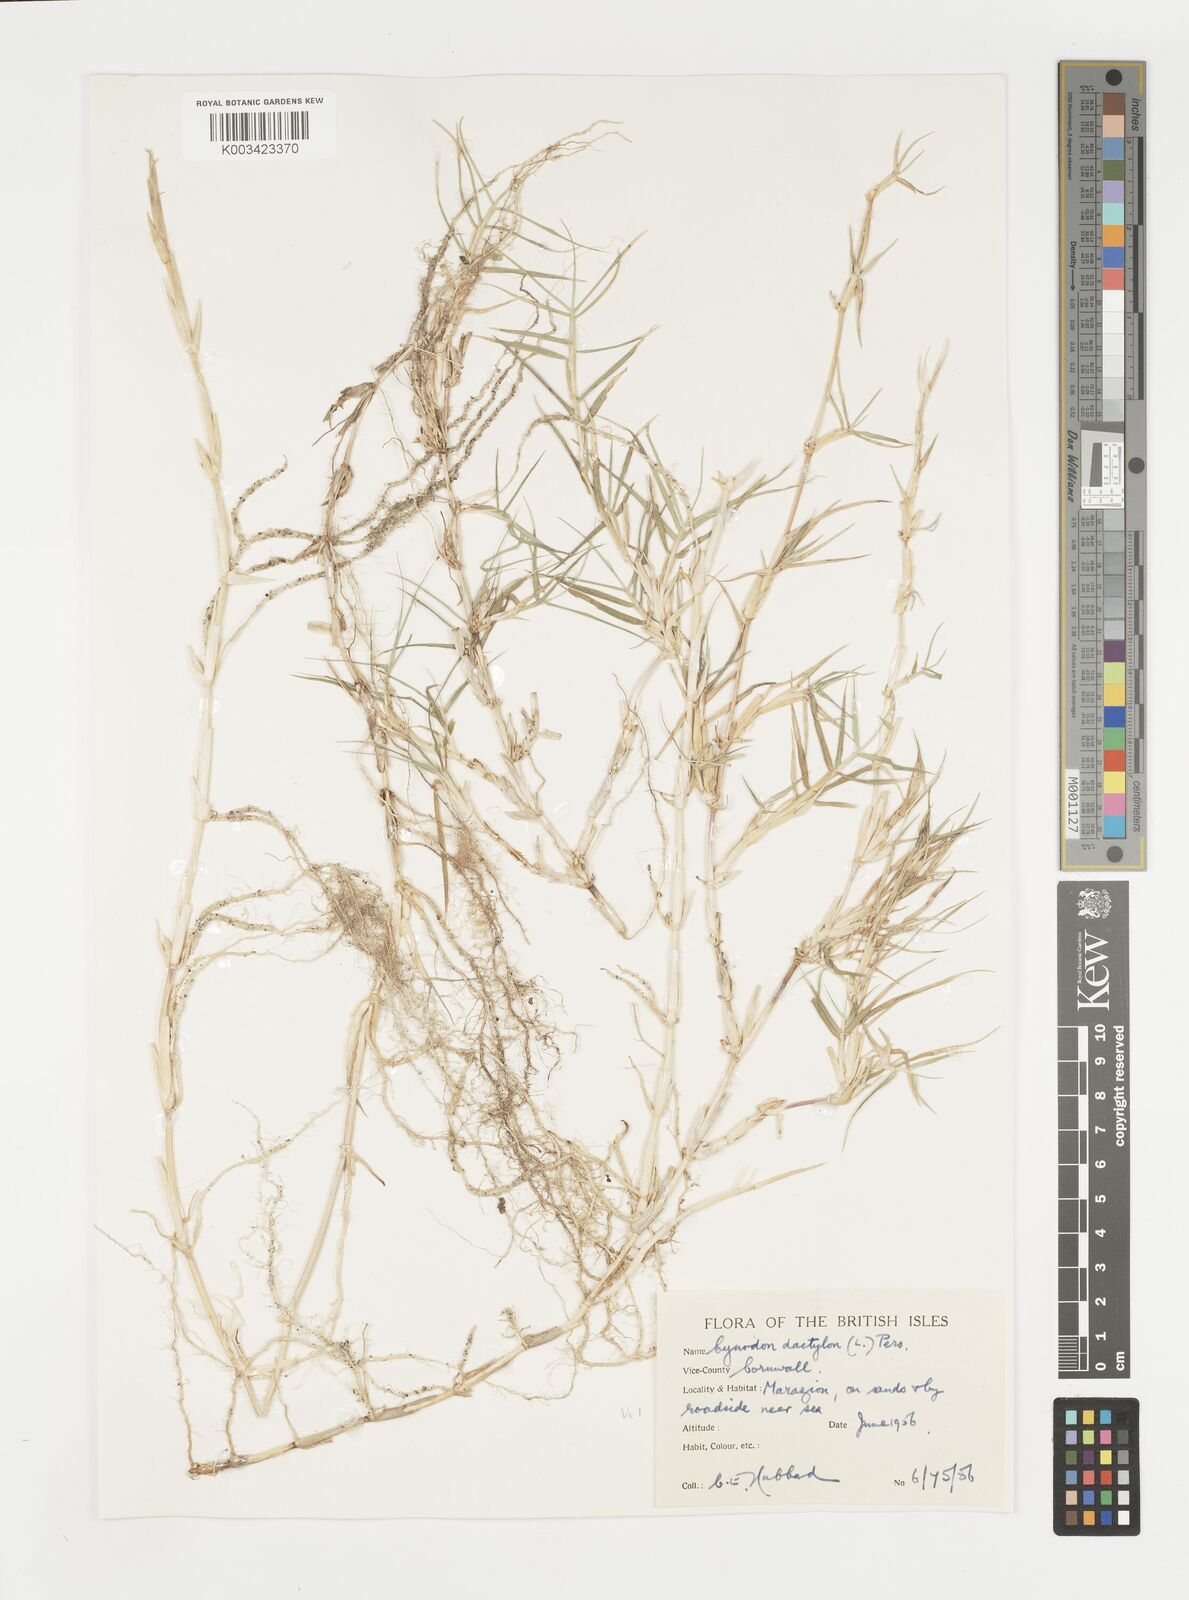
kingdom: Plantae
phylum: Tracheophyta
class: Liliopsida
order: Poales
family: Poaceae
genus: Cynodon
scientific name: Cynodon dactylon
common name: Bermuda grass
